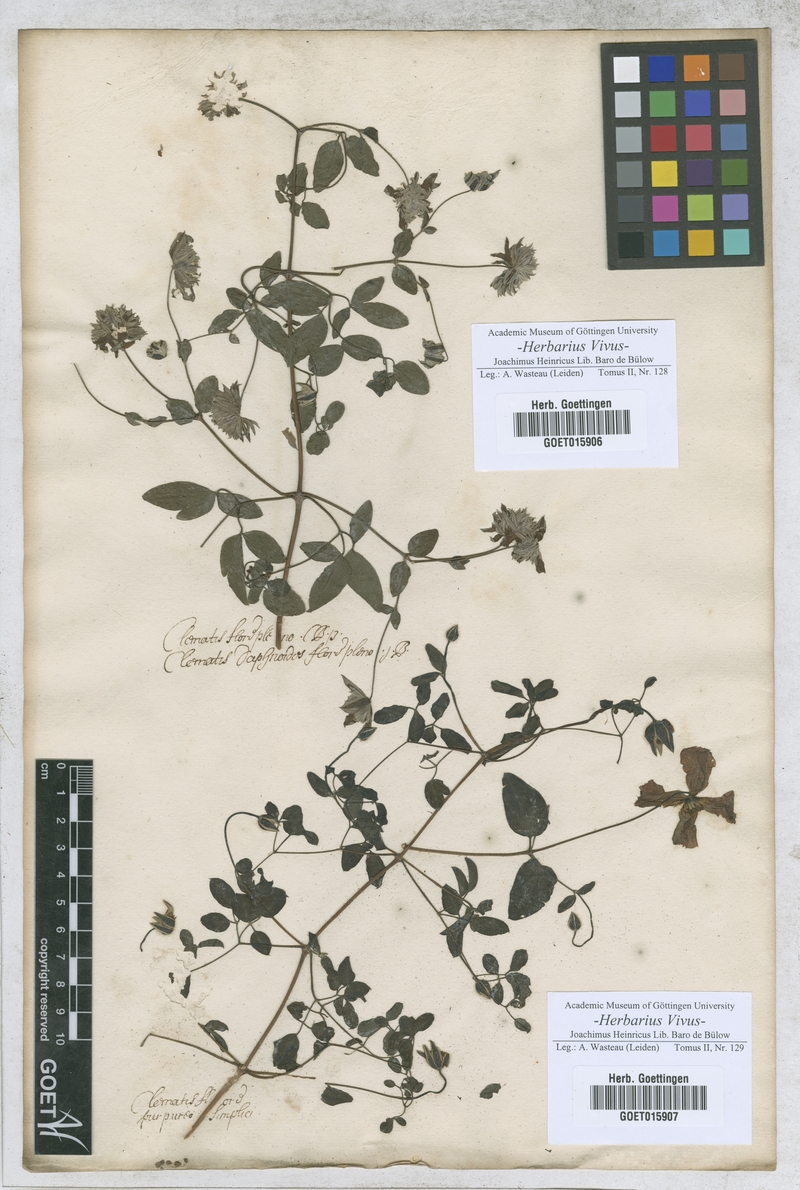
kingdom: Plantae
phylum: Tracheophyta
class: Magnoliopsida
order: Ranunculales
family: Ranunculaceae
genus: Clematis
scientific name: Clematis
